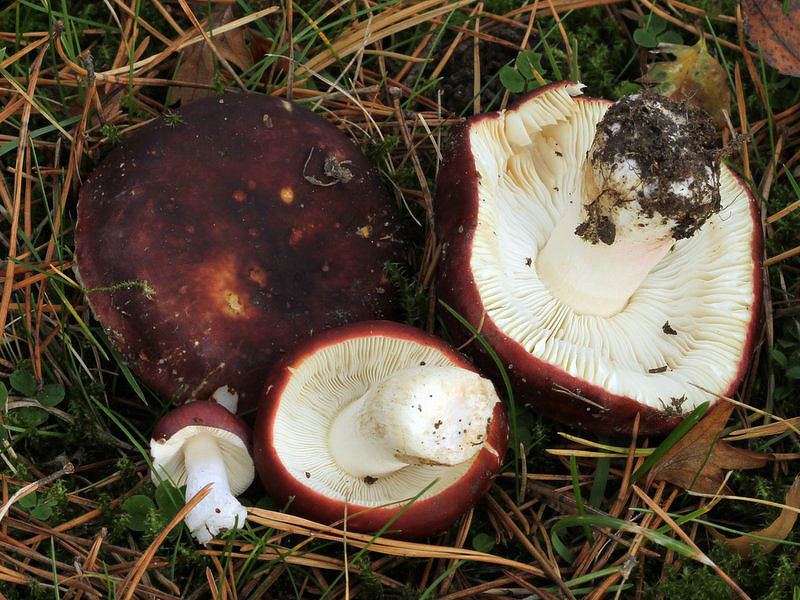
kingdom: Fungi
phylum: Basidiomycota
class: Agaricomycetes
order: Russulales
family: Russulaceae
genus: Russula
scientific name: Russula xerampelina
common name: hummer-skørhat
